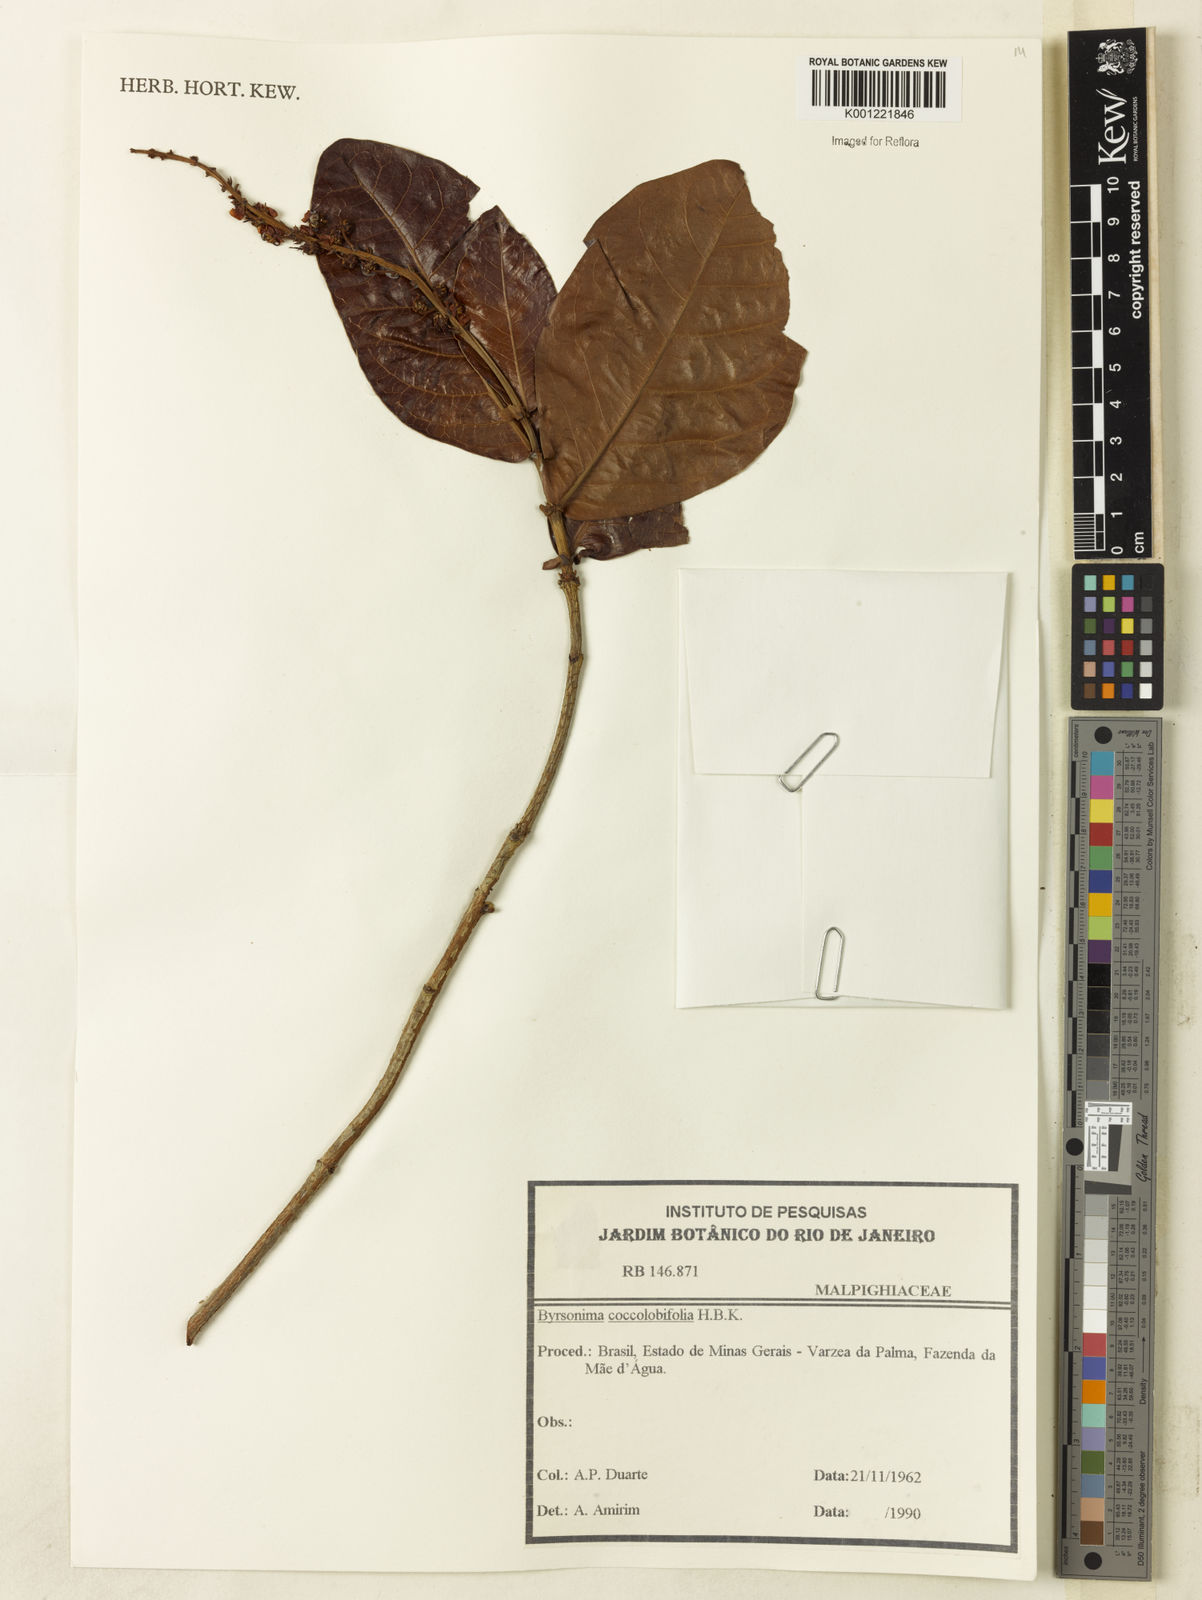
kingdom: Plantae
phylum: Tracheophyta
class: Magnoliopsida
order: Malpighiales
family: Malpighiaceae
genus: Byrsonima
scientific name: Byrsonima coccolobifolia
